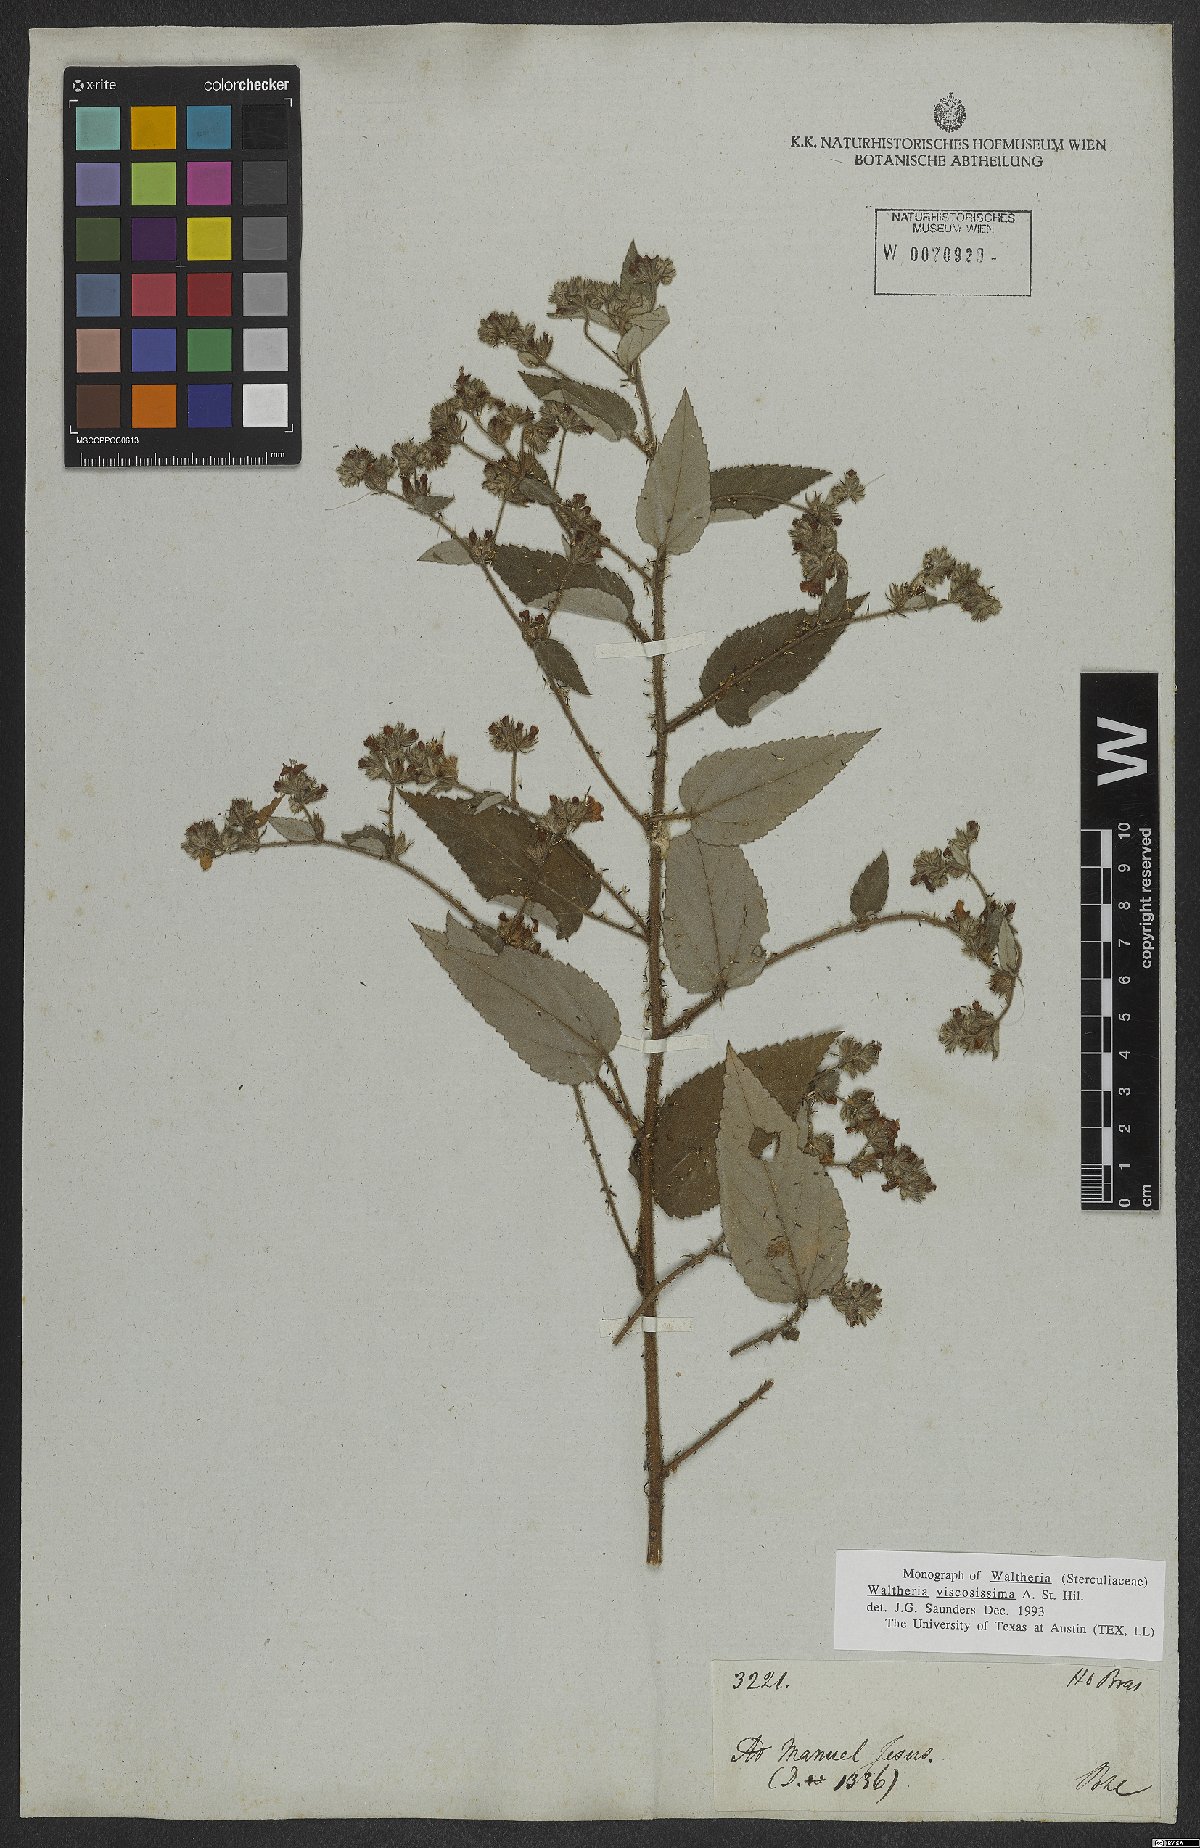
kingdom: Plantae
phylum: Tracheophyta
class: Magnoliopsida
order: Malvales
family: Malvaceae
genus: Waltheria
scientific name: Waltheria viscosissima
